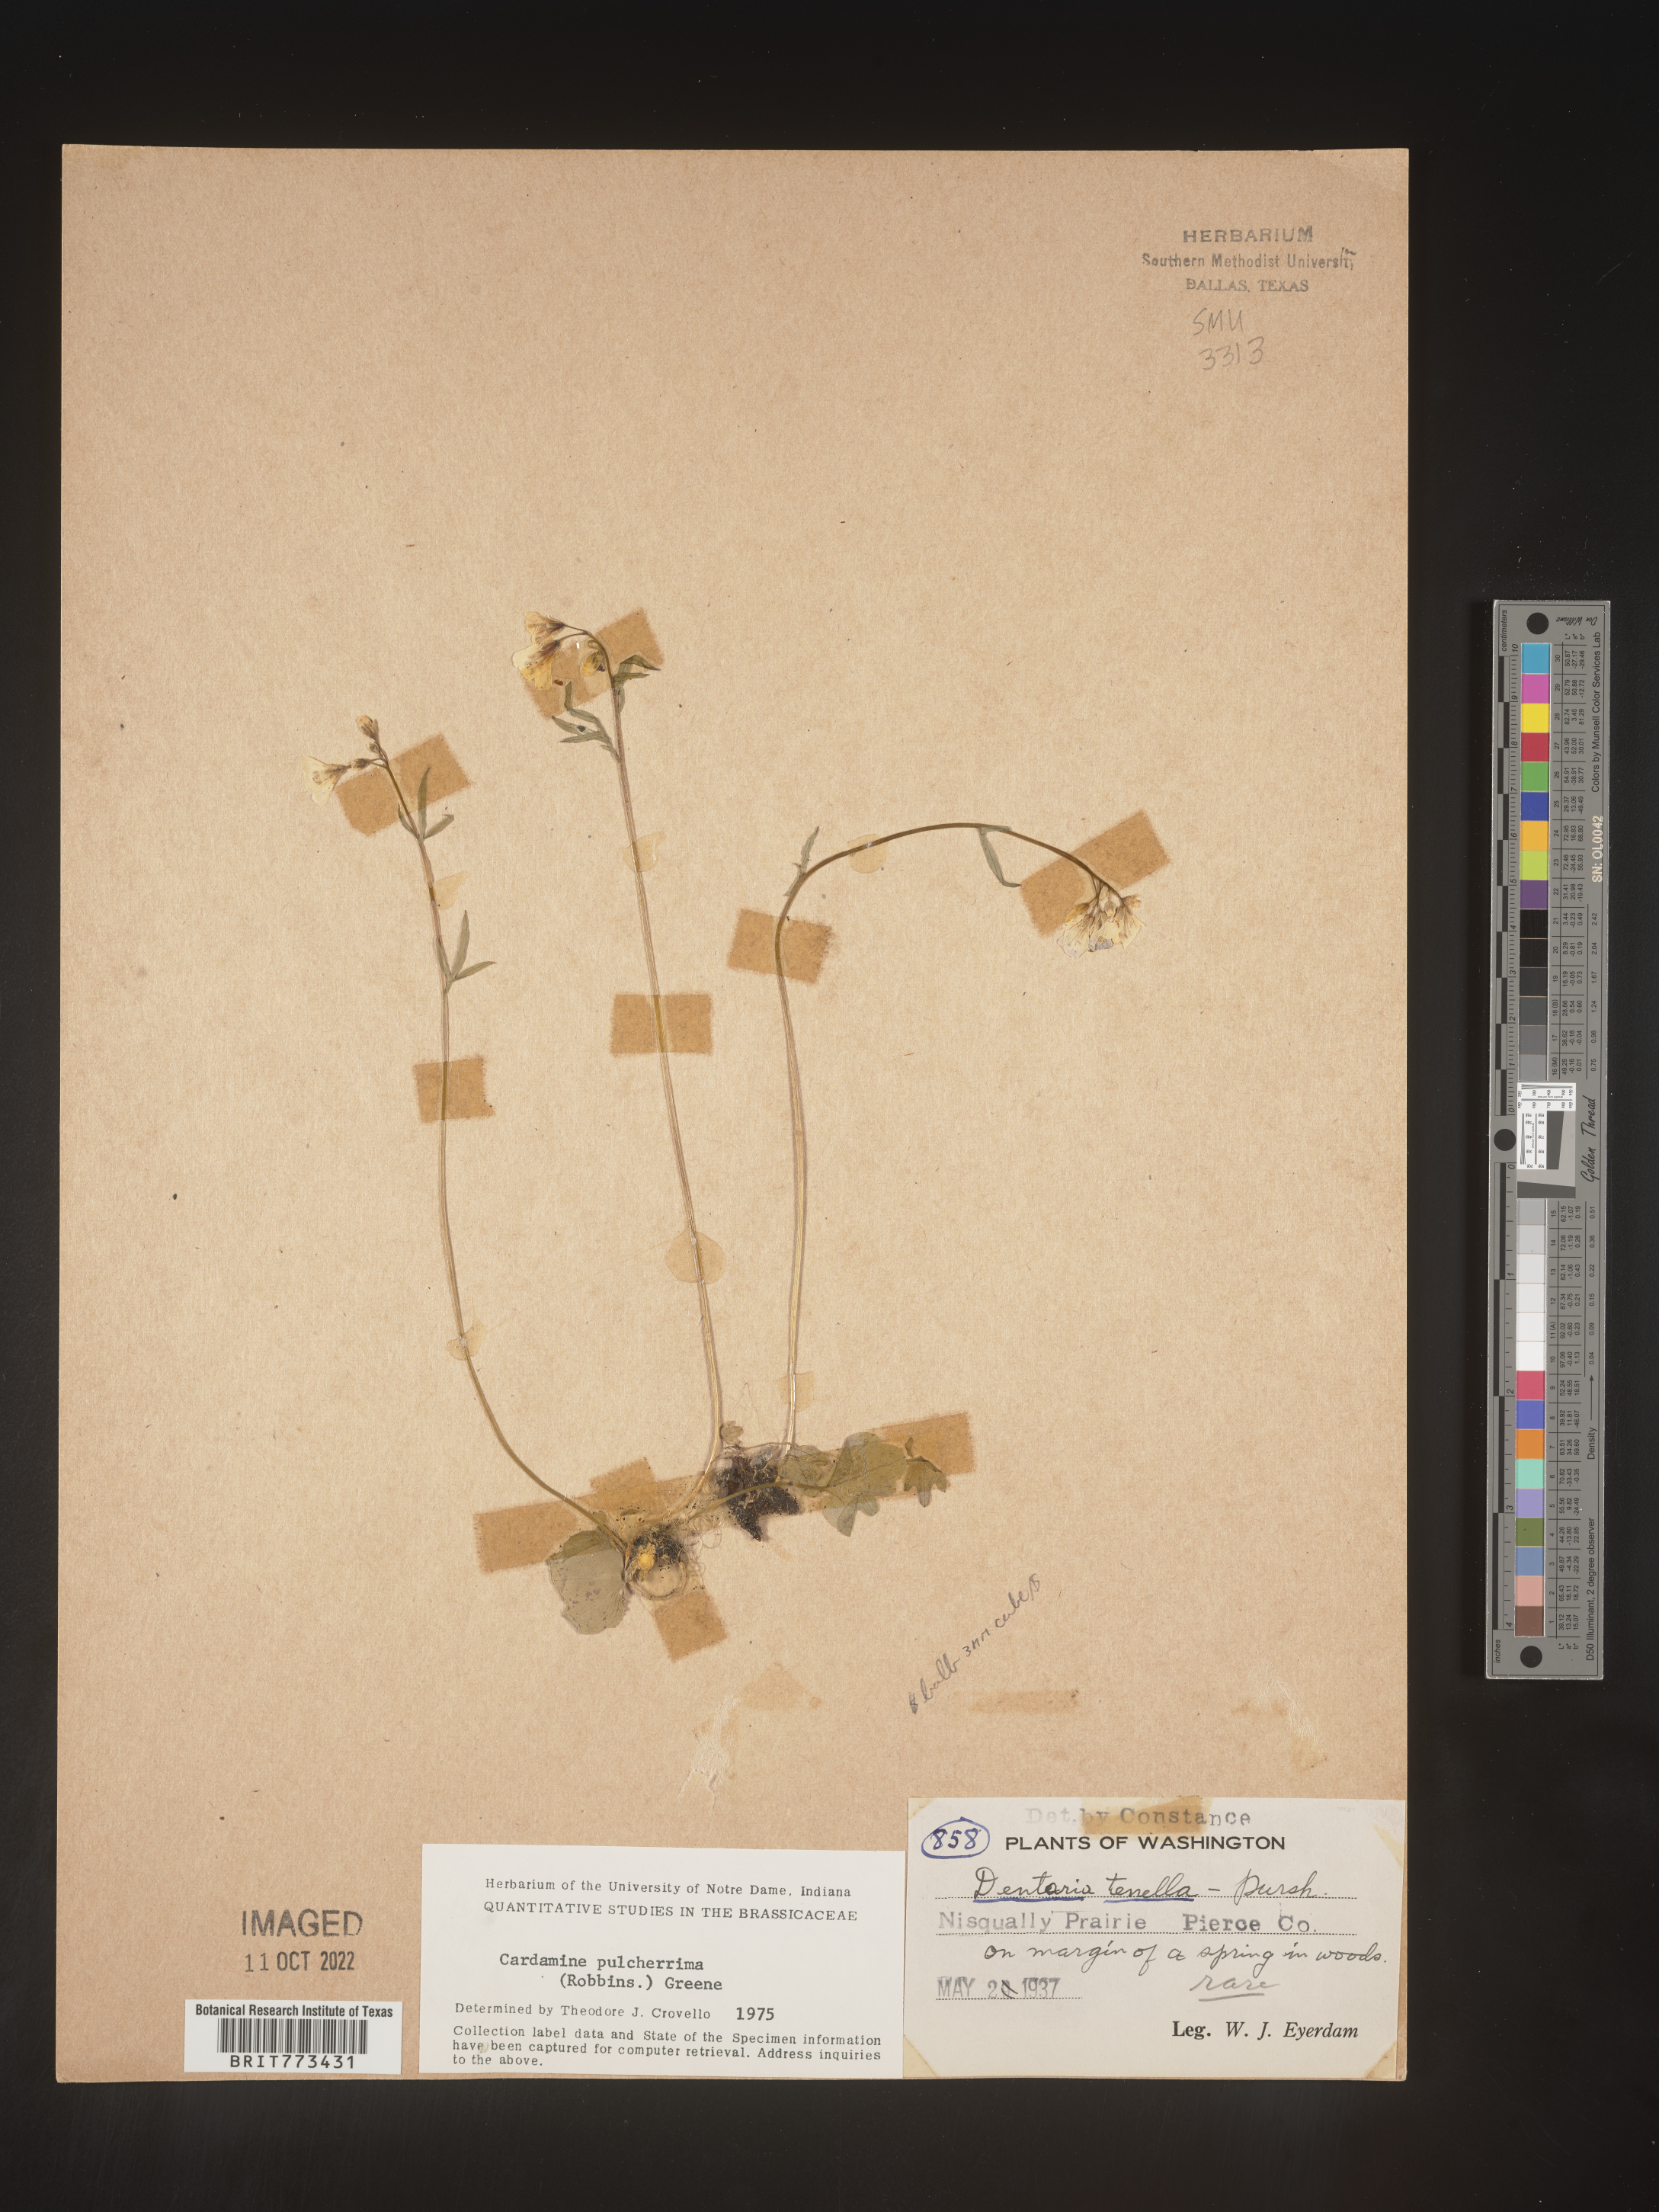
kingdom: Plantae
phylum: Tracheophyta
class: Magnoliopsida
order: Brassicales
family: Brassicaceae
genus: Cardamine
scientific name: Cardamine
